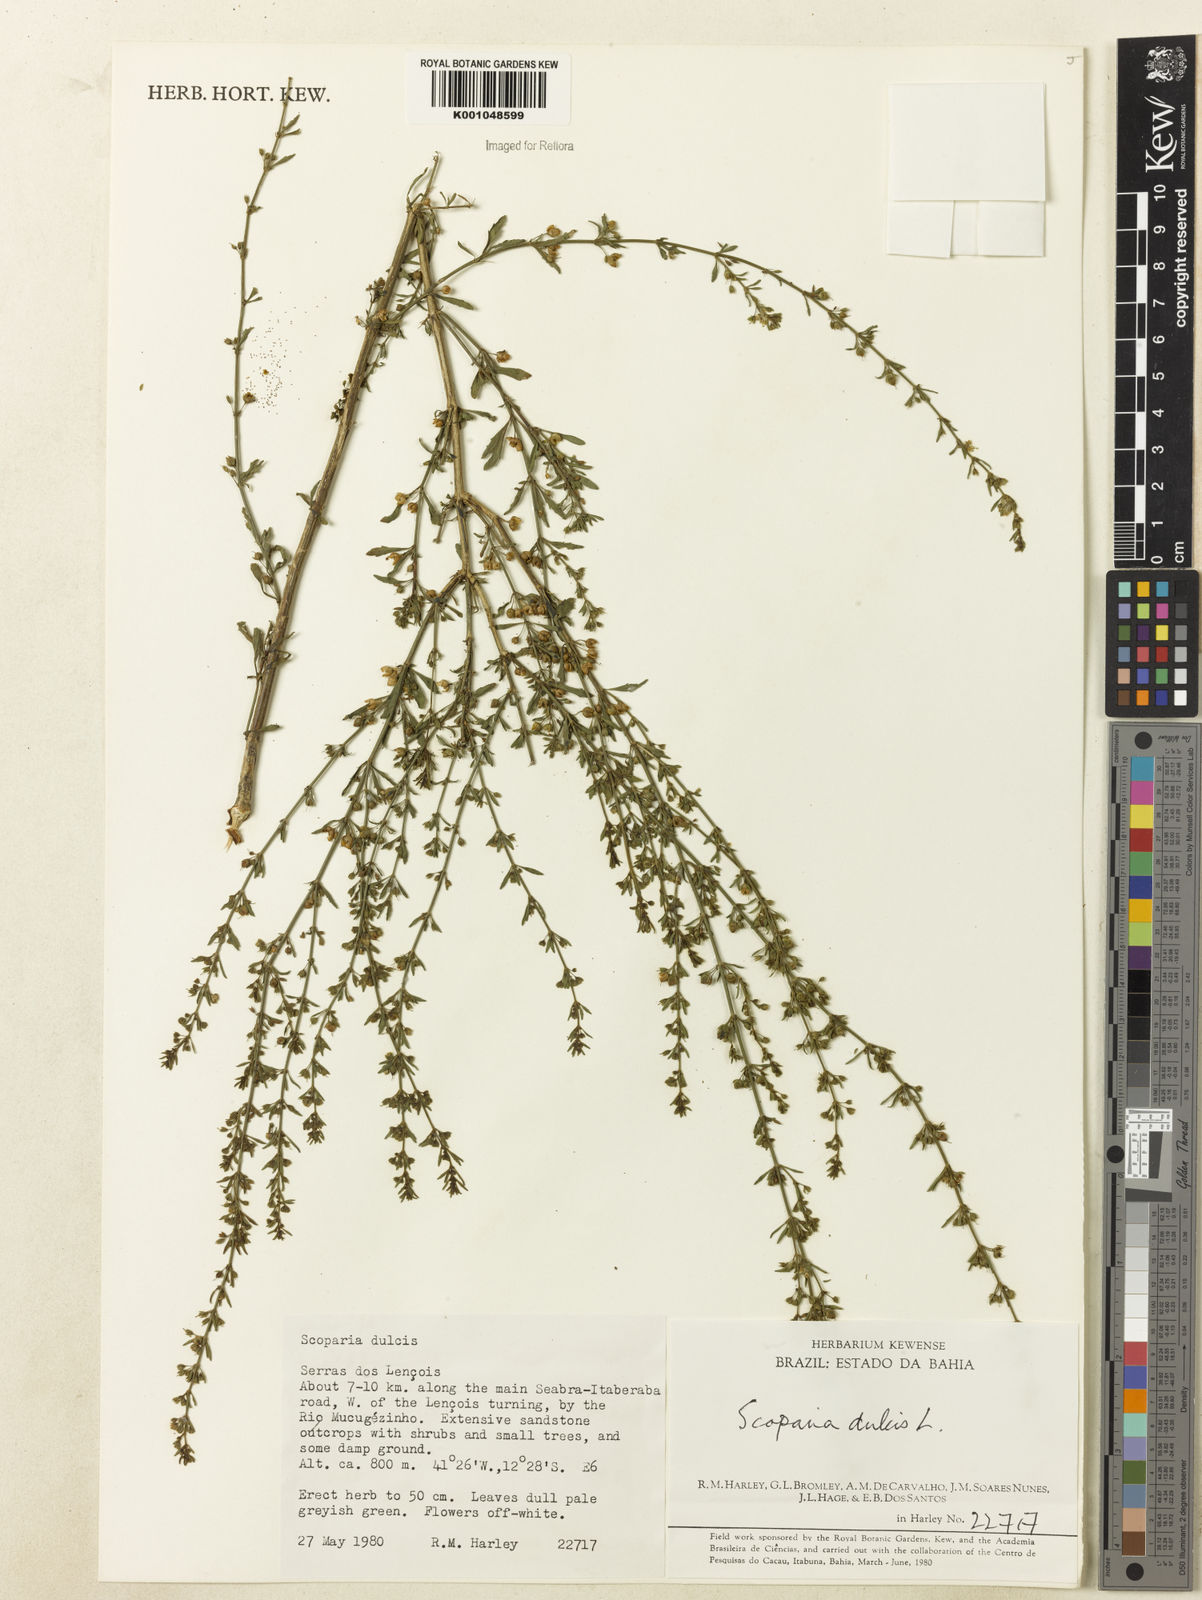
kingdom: Plantae
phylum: Tracheophyta
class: Magnoliopsida
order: Lamiales
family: Plantaginaceae
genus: Scoparia
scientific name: Scoparia dulcis
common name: Scoparia-weed
